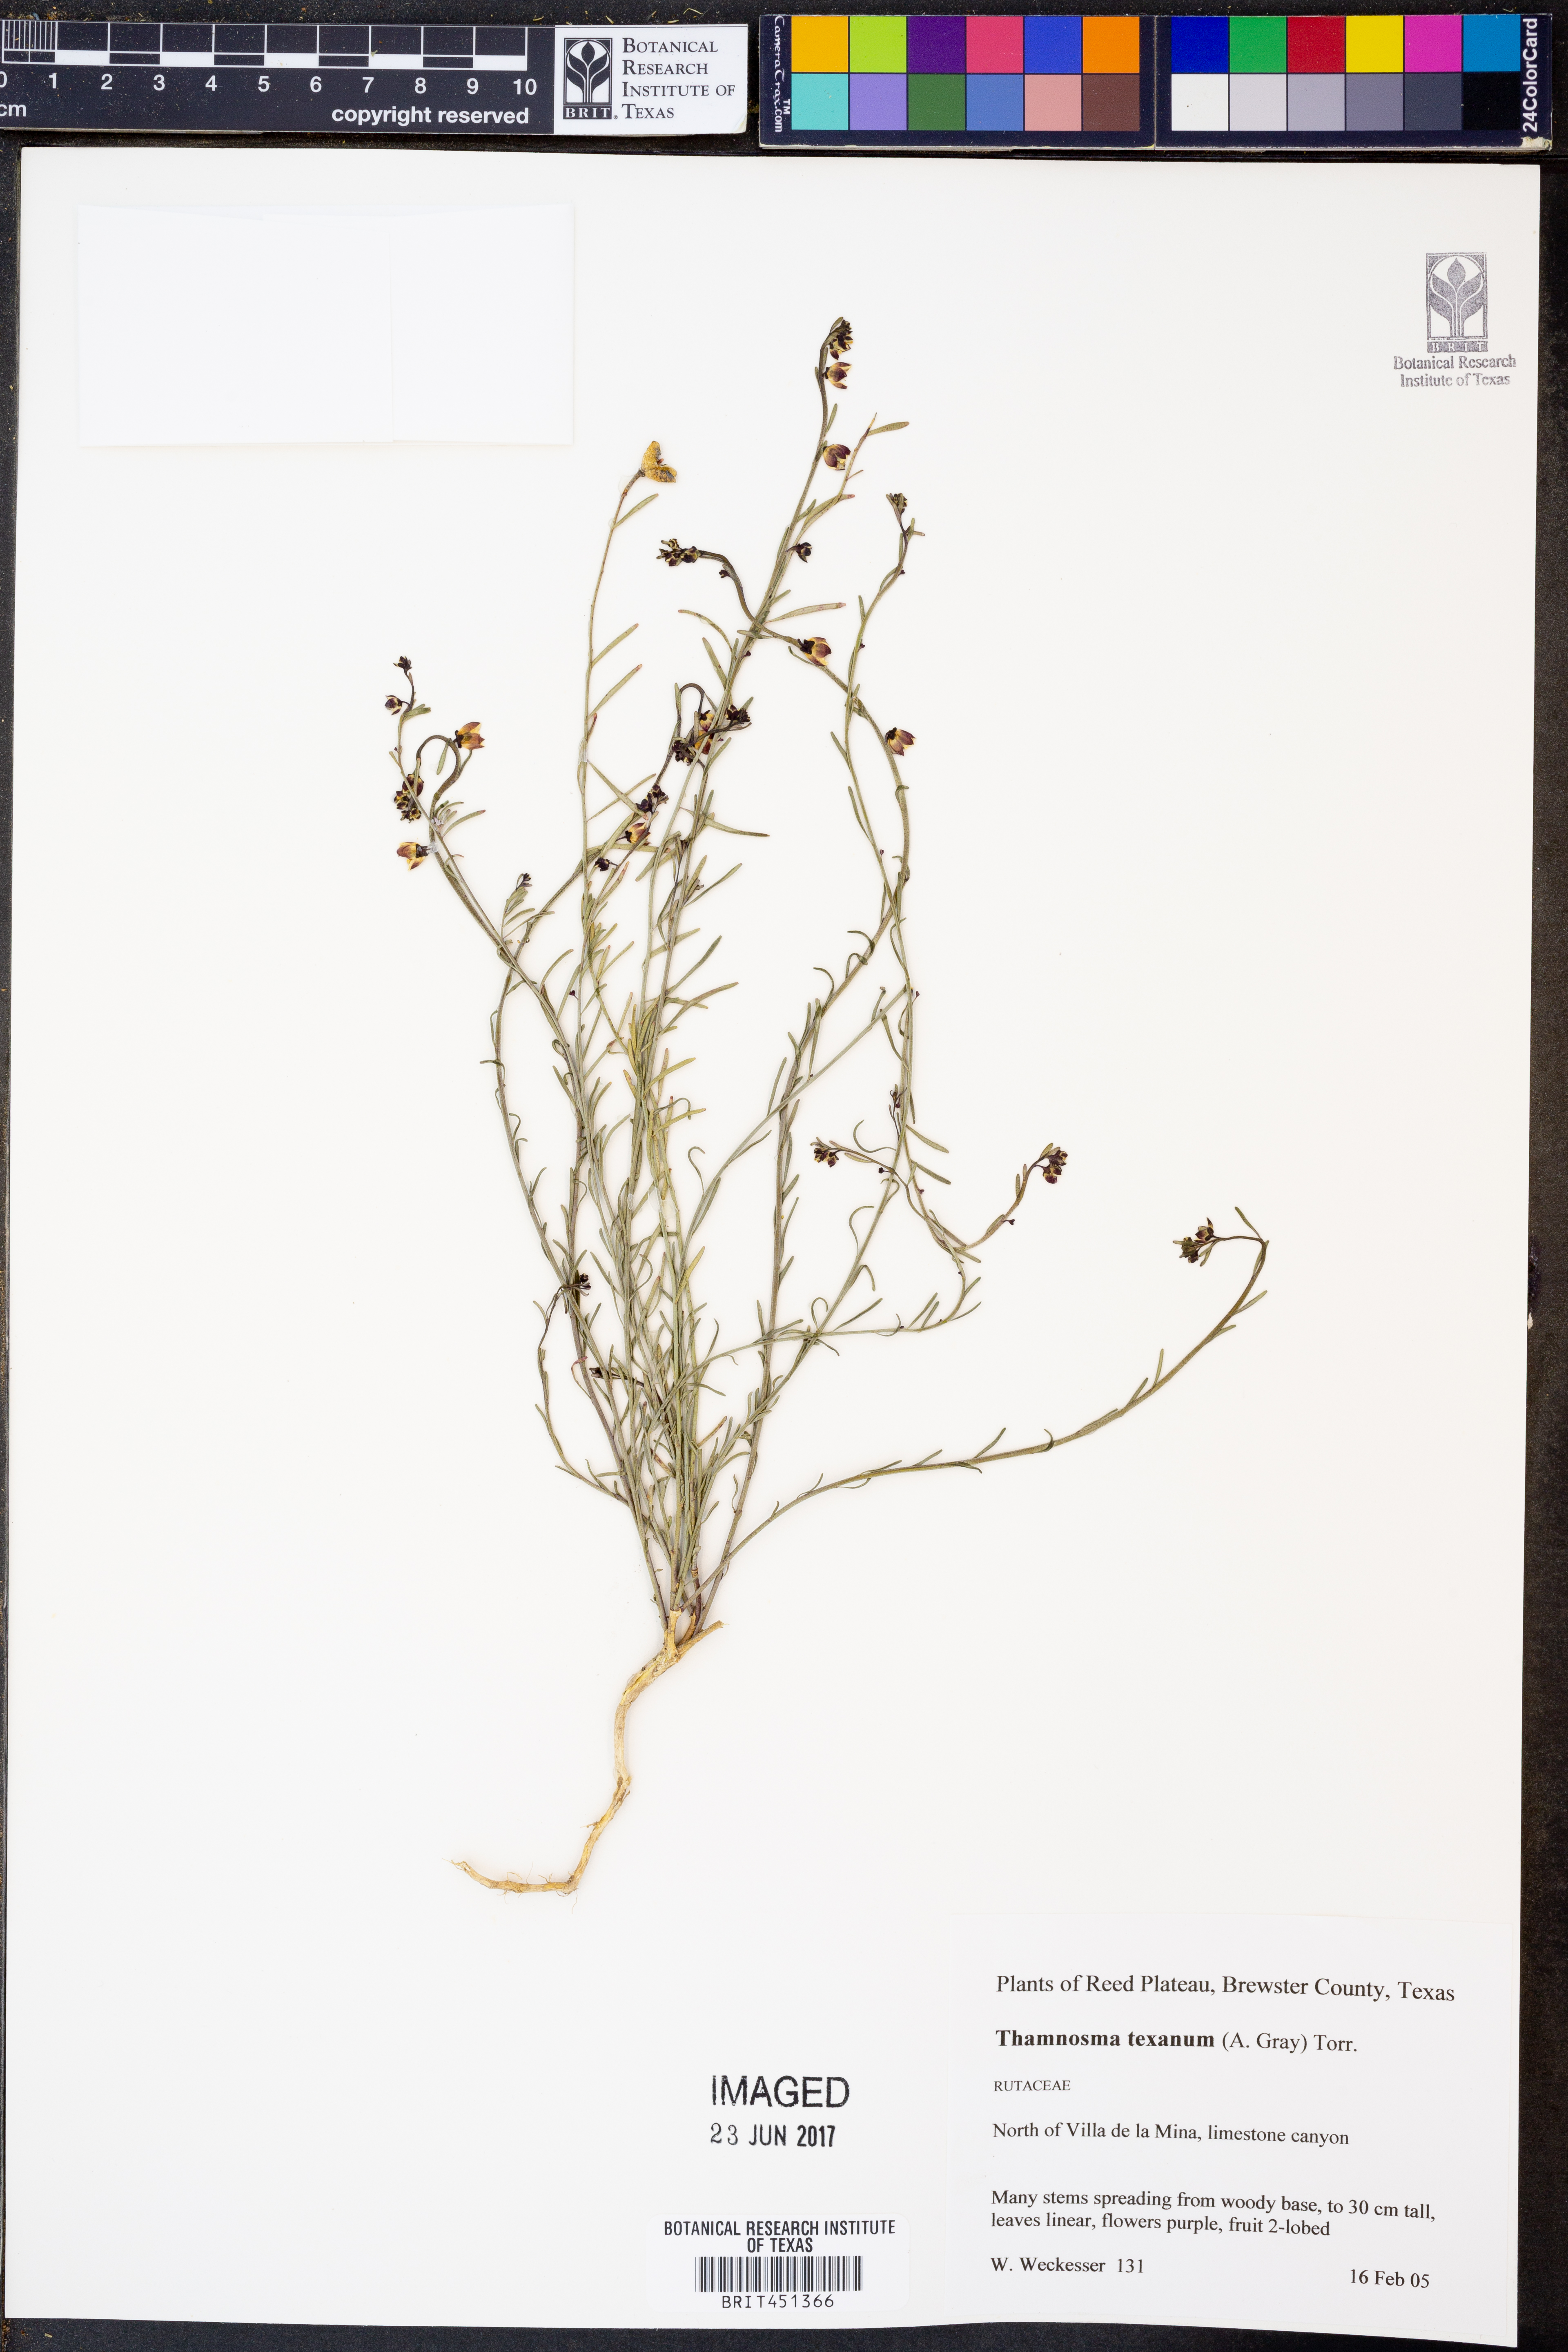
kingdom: Plantae
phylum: Tracheophyta
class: Magnoliopsida
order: Sapindales
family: Rutaceae
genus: Thamnosma
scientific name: Thamnosma texana
